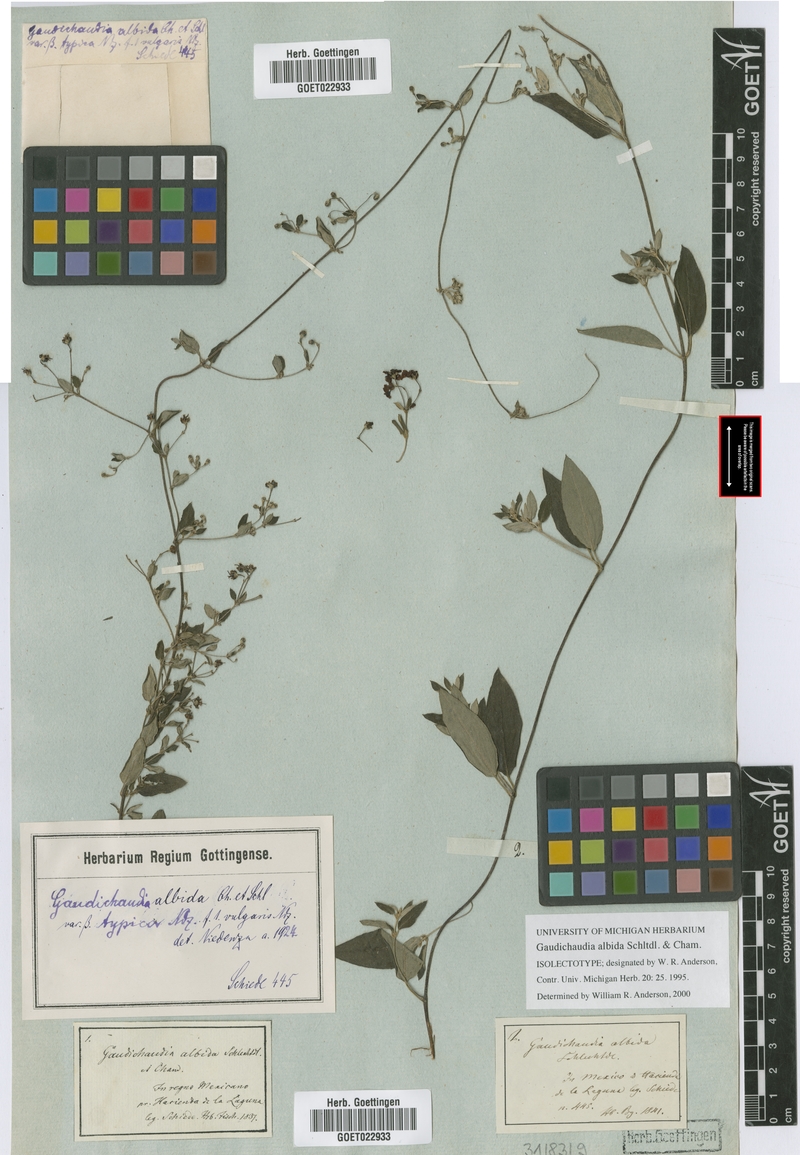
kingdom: Plantae
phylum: Tracheophyta
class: Magnoliopsida
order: Malpighiales
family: Malpighiaceae
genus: Gaudichaudia
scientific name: Gaudichaudia albida
